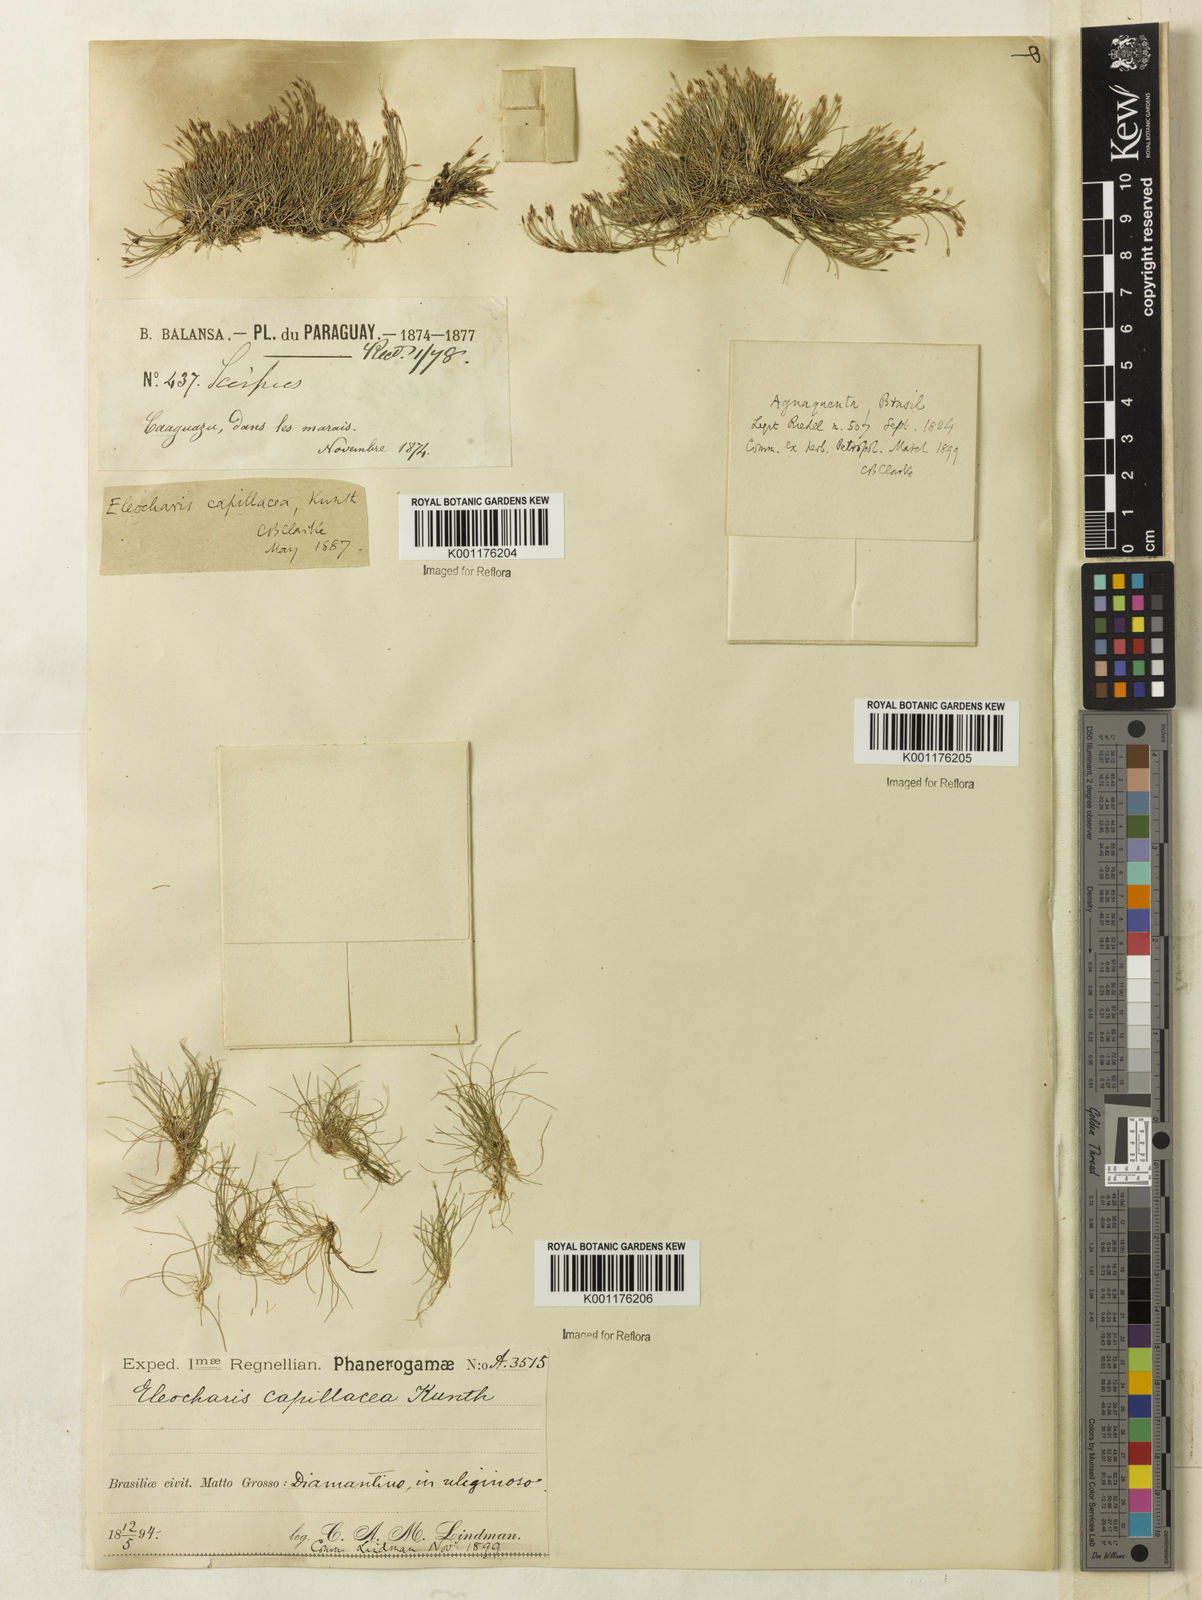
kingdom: Plantae
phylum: Tracheophyta
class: Liliopsida
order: Poales
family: Cyperaceae
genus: Eleocharis
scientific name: Eleocharis capillacea
